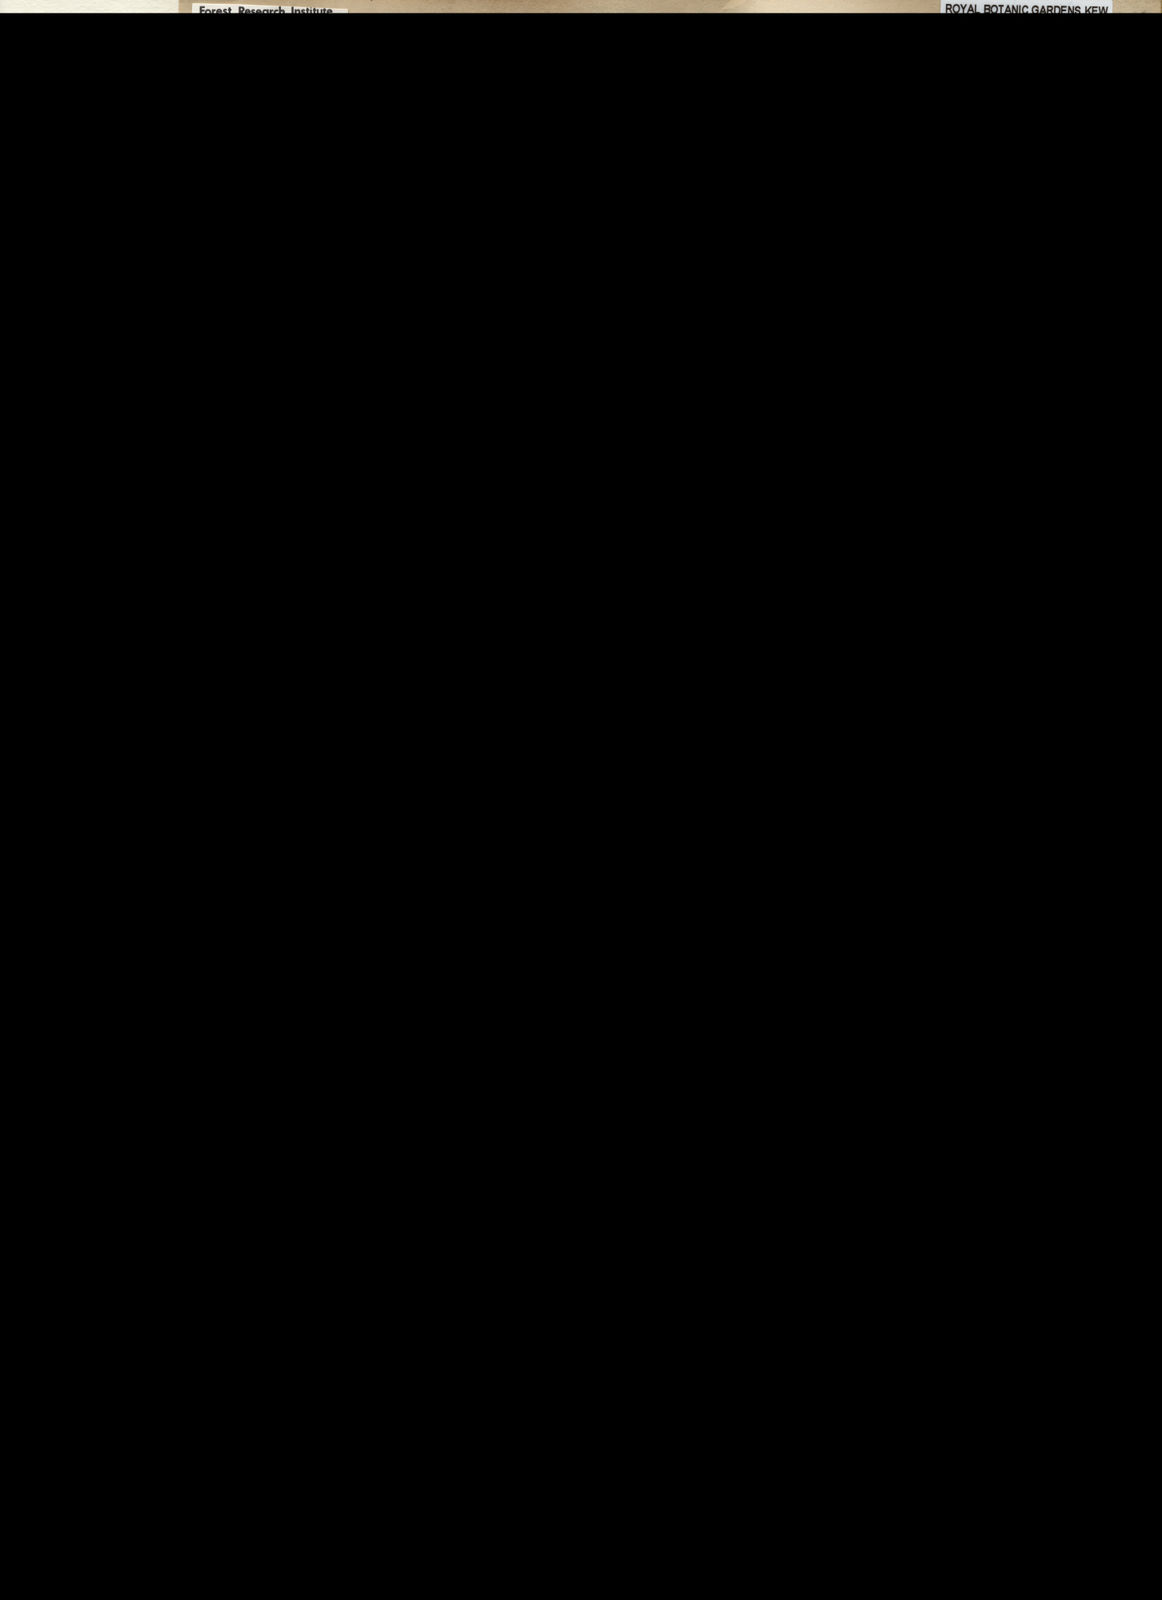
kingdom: Plantae
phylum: Tracheophyta
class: Magnoliopsida
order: Myrtales
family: Myrtaceae
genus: Eucalyptus
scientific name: Eucalyptus microcorys
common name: Tallowwood
